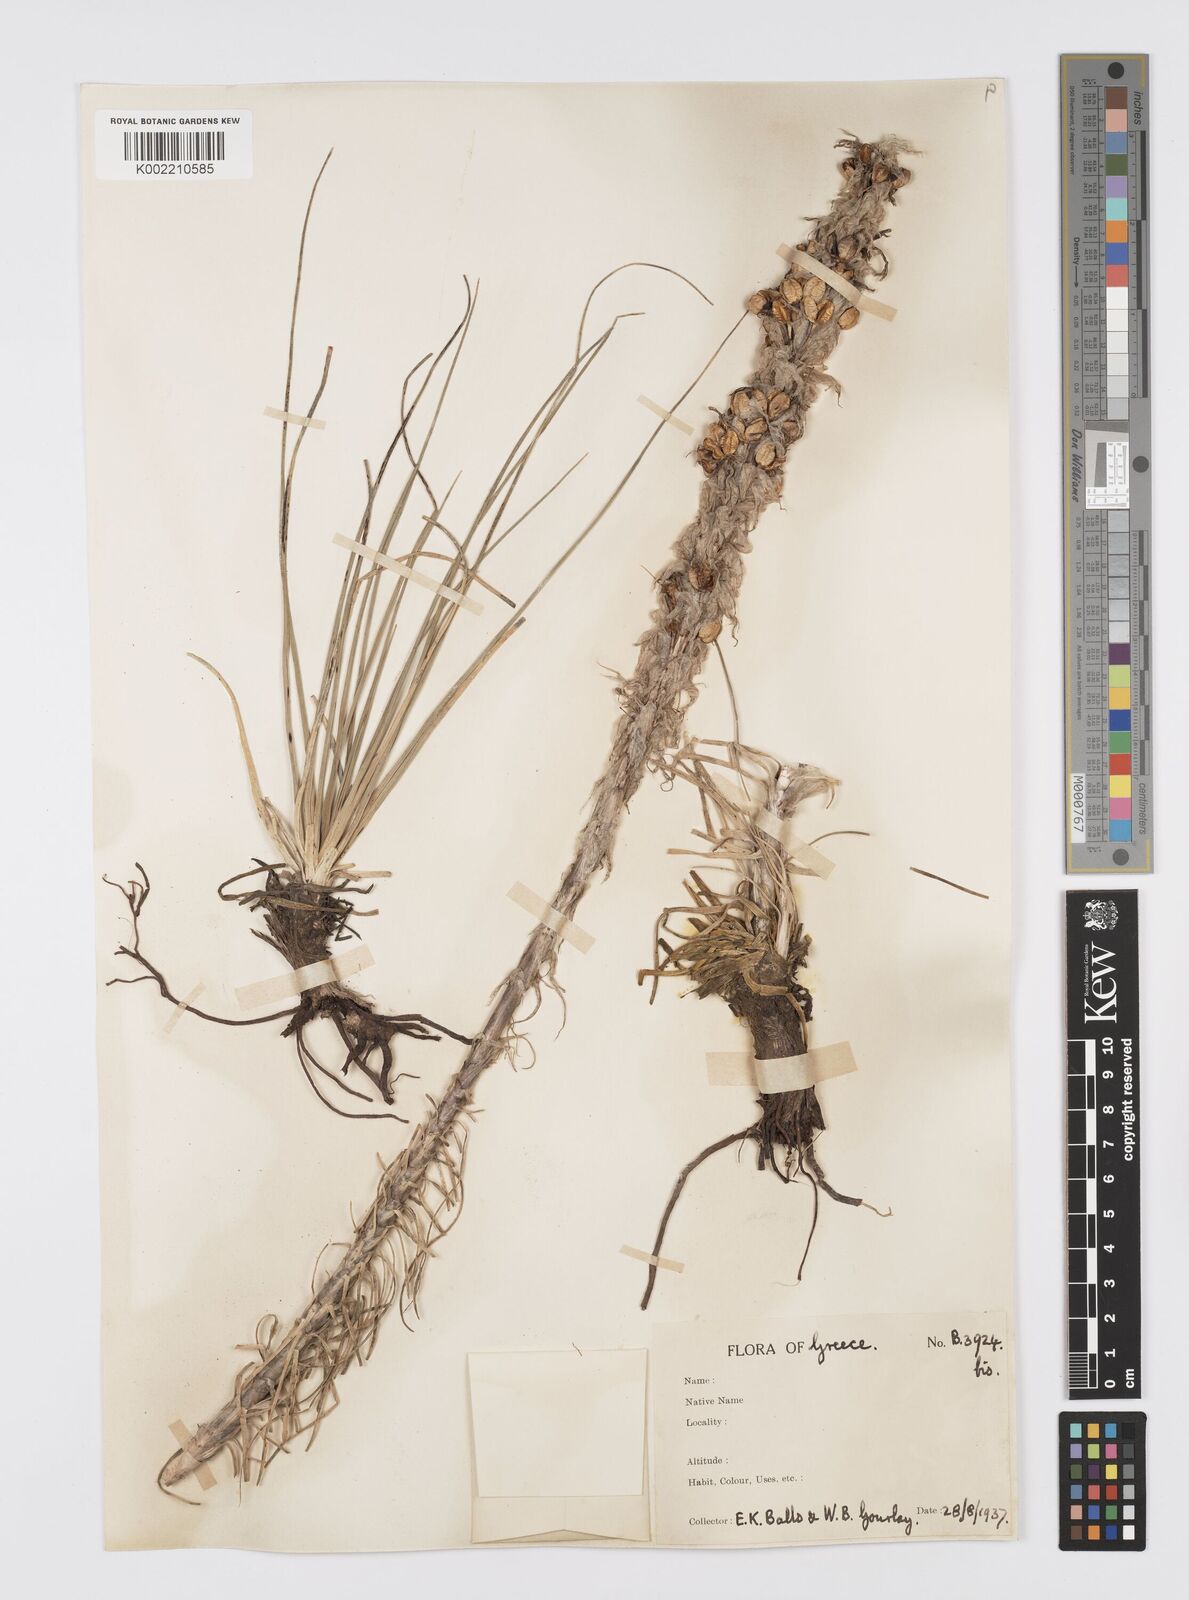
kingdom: Plantae
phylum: Tracheophyta
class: Liliopsida
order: Asparagales
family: Asphodelaceae
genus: Asphodeline
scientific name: Asphodeline taurica
